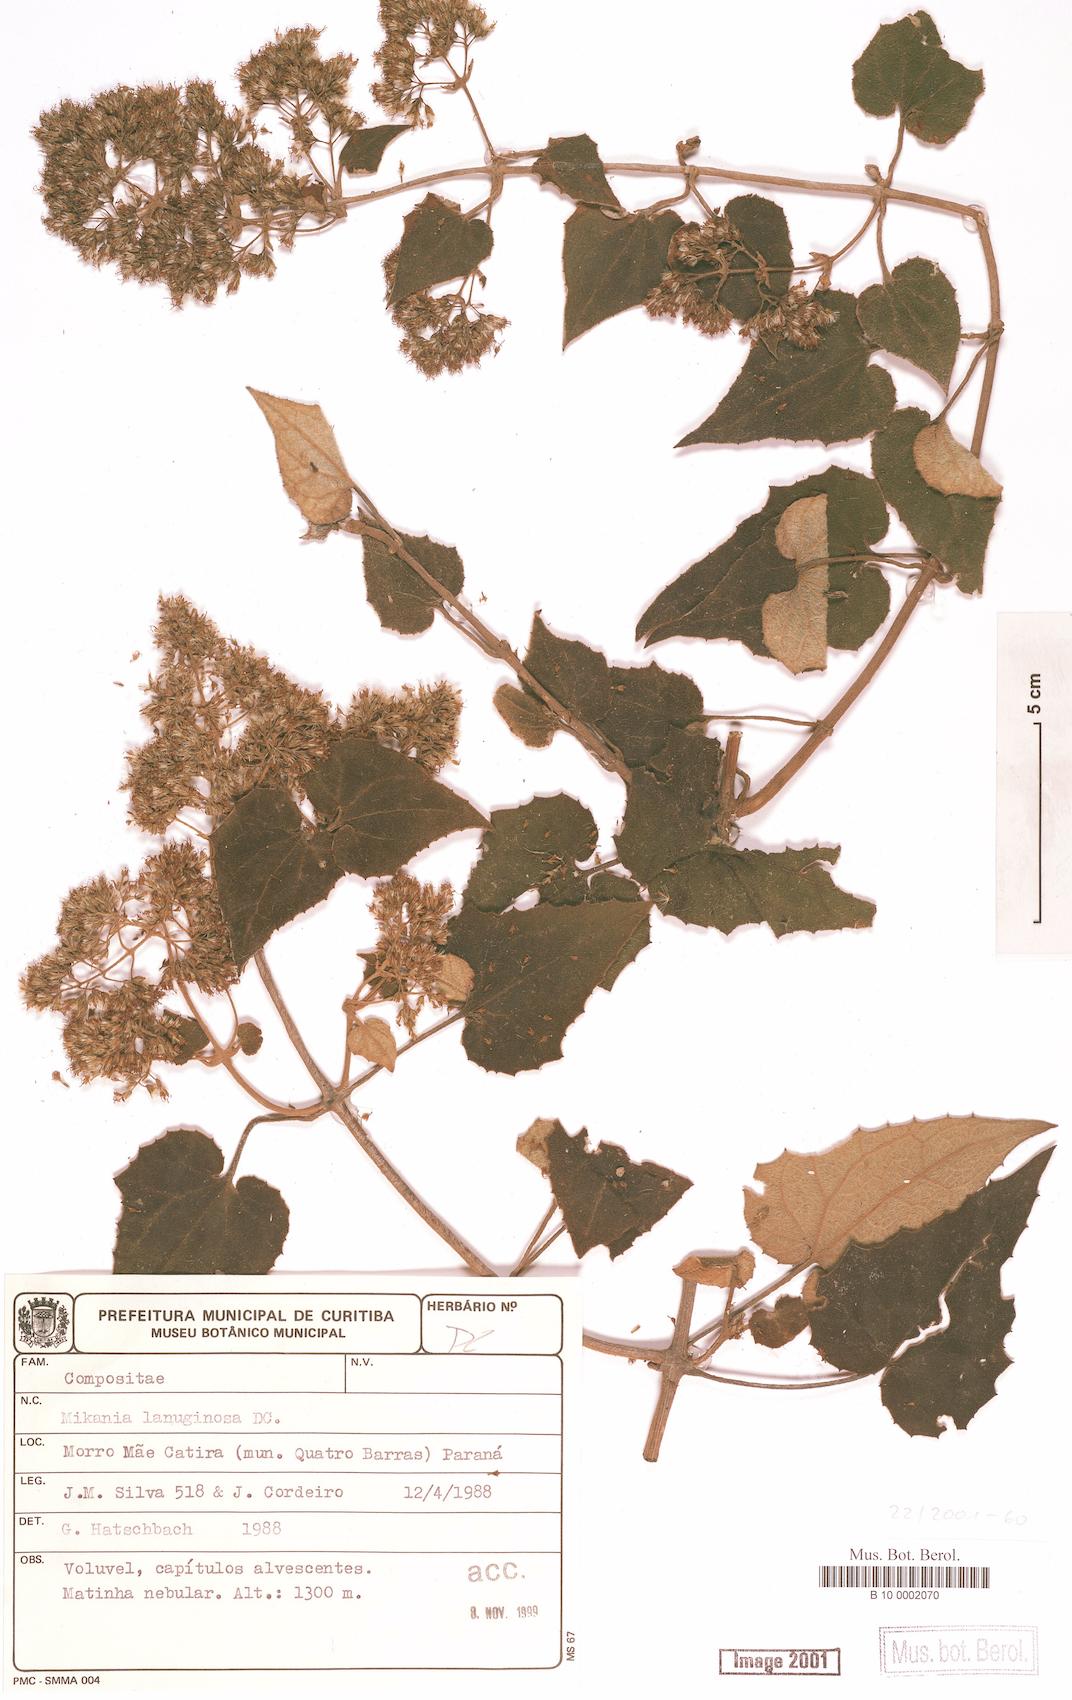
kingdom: Plantae
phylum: Tracheophyta
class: Magnoliopsida
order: Asterales
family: Asteraceae
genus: Mikania
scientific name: Mikania banisteriae
